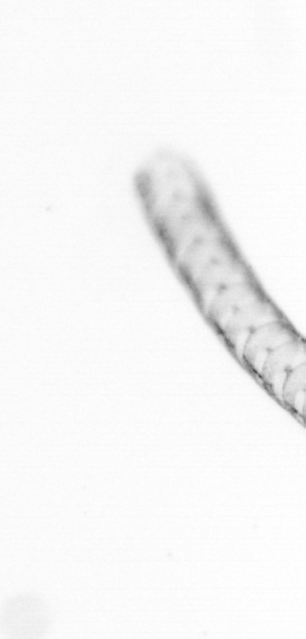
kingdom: Chromista
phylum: Ochrophyta
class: Bacillariophyceae
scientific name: Bacillariophyceae
